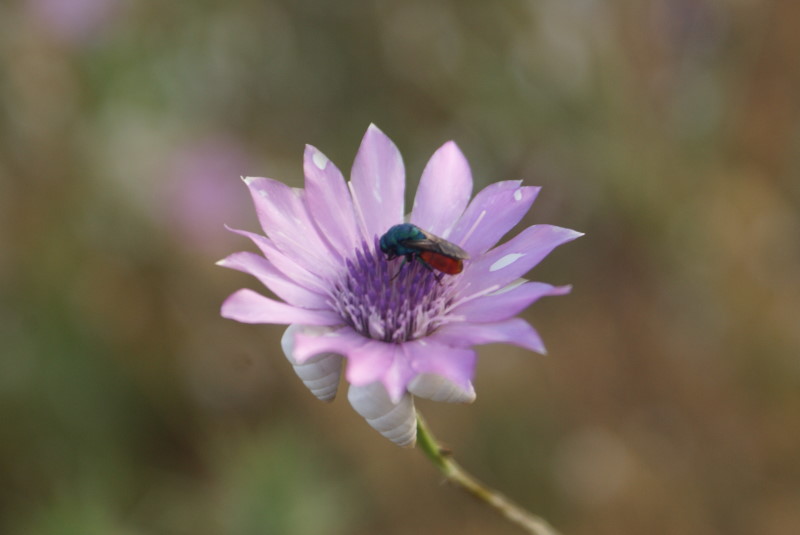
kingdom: Plantae
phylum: Tracheophyta
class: Magnoliopsida
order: Asterales
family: Asteraceae
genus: Xeranthemum
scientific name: Xeranthemum annuum
